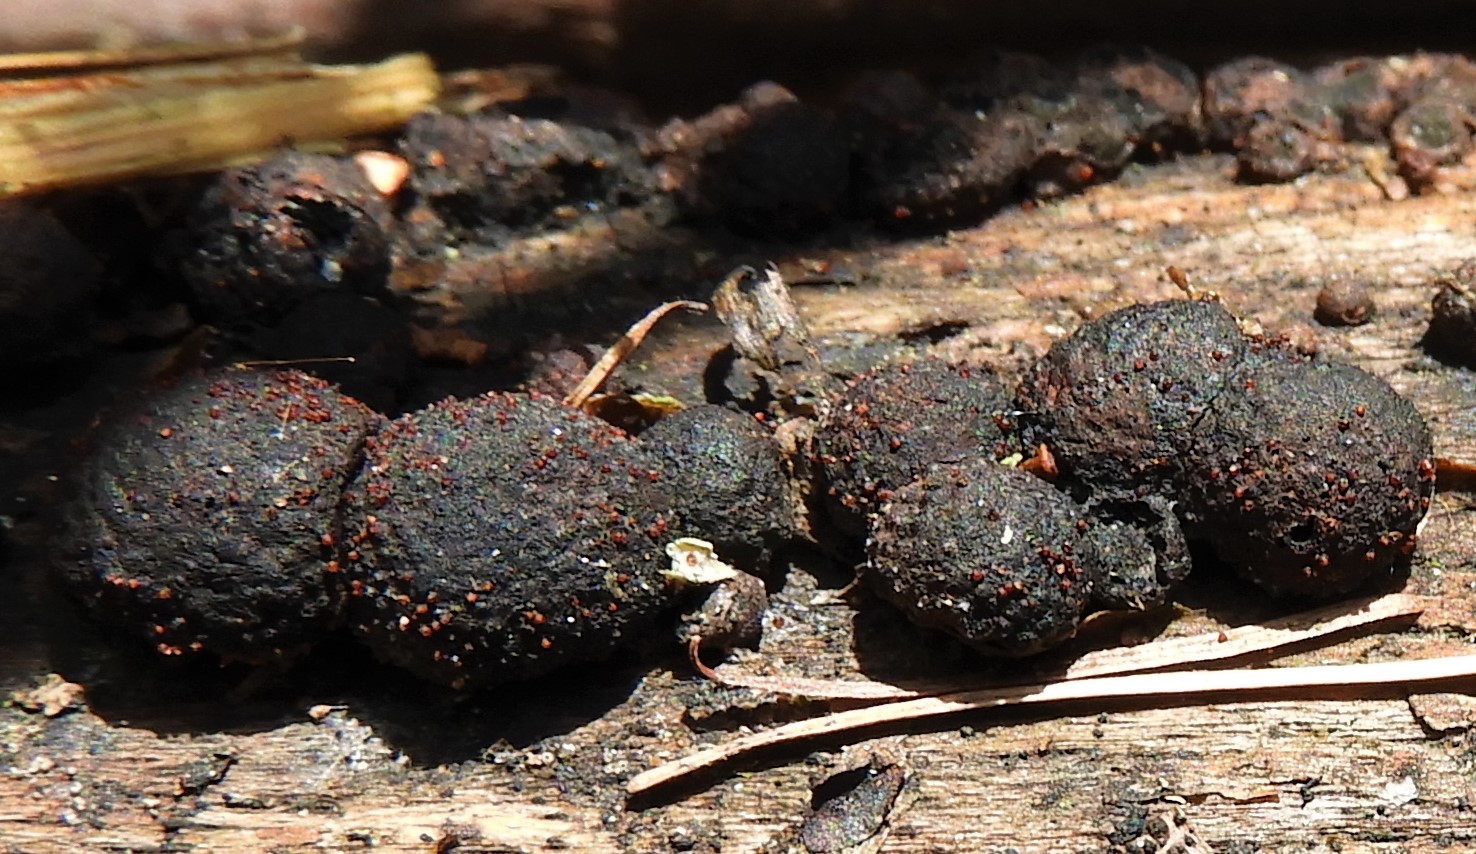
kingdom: Fungi
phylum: Ascomycota
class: Sordariomycetes
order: Hypocreales
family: Nectriaceae
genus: Cosmospora
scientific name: Cosmospora arxii
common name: kuljordbær-cinnobersvamp
